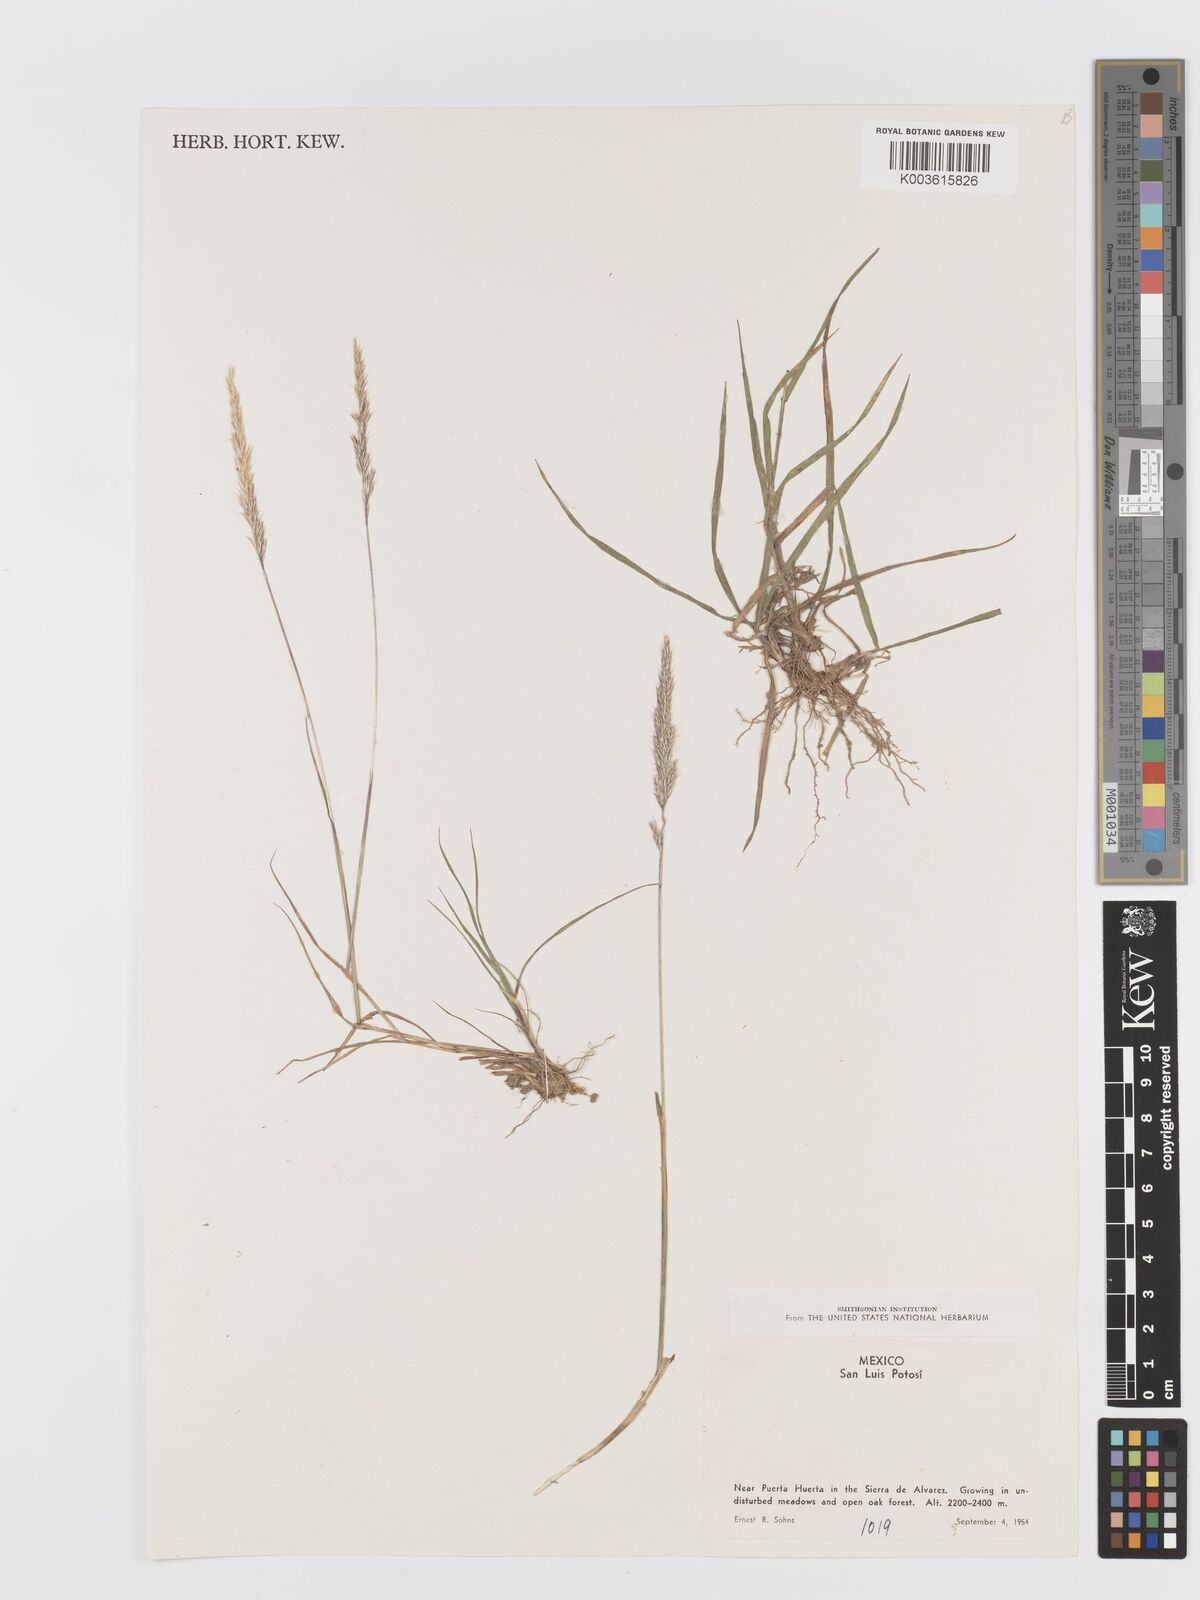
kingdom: Plantae
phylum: Tracheophyta
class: Liliopsida
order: Poales
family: Poaceae
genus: Trisetum
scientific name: Trisetum
